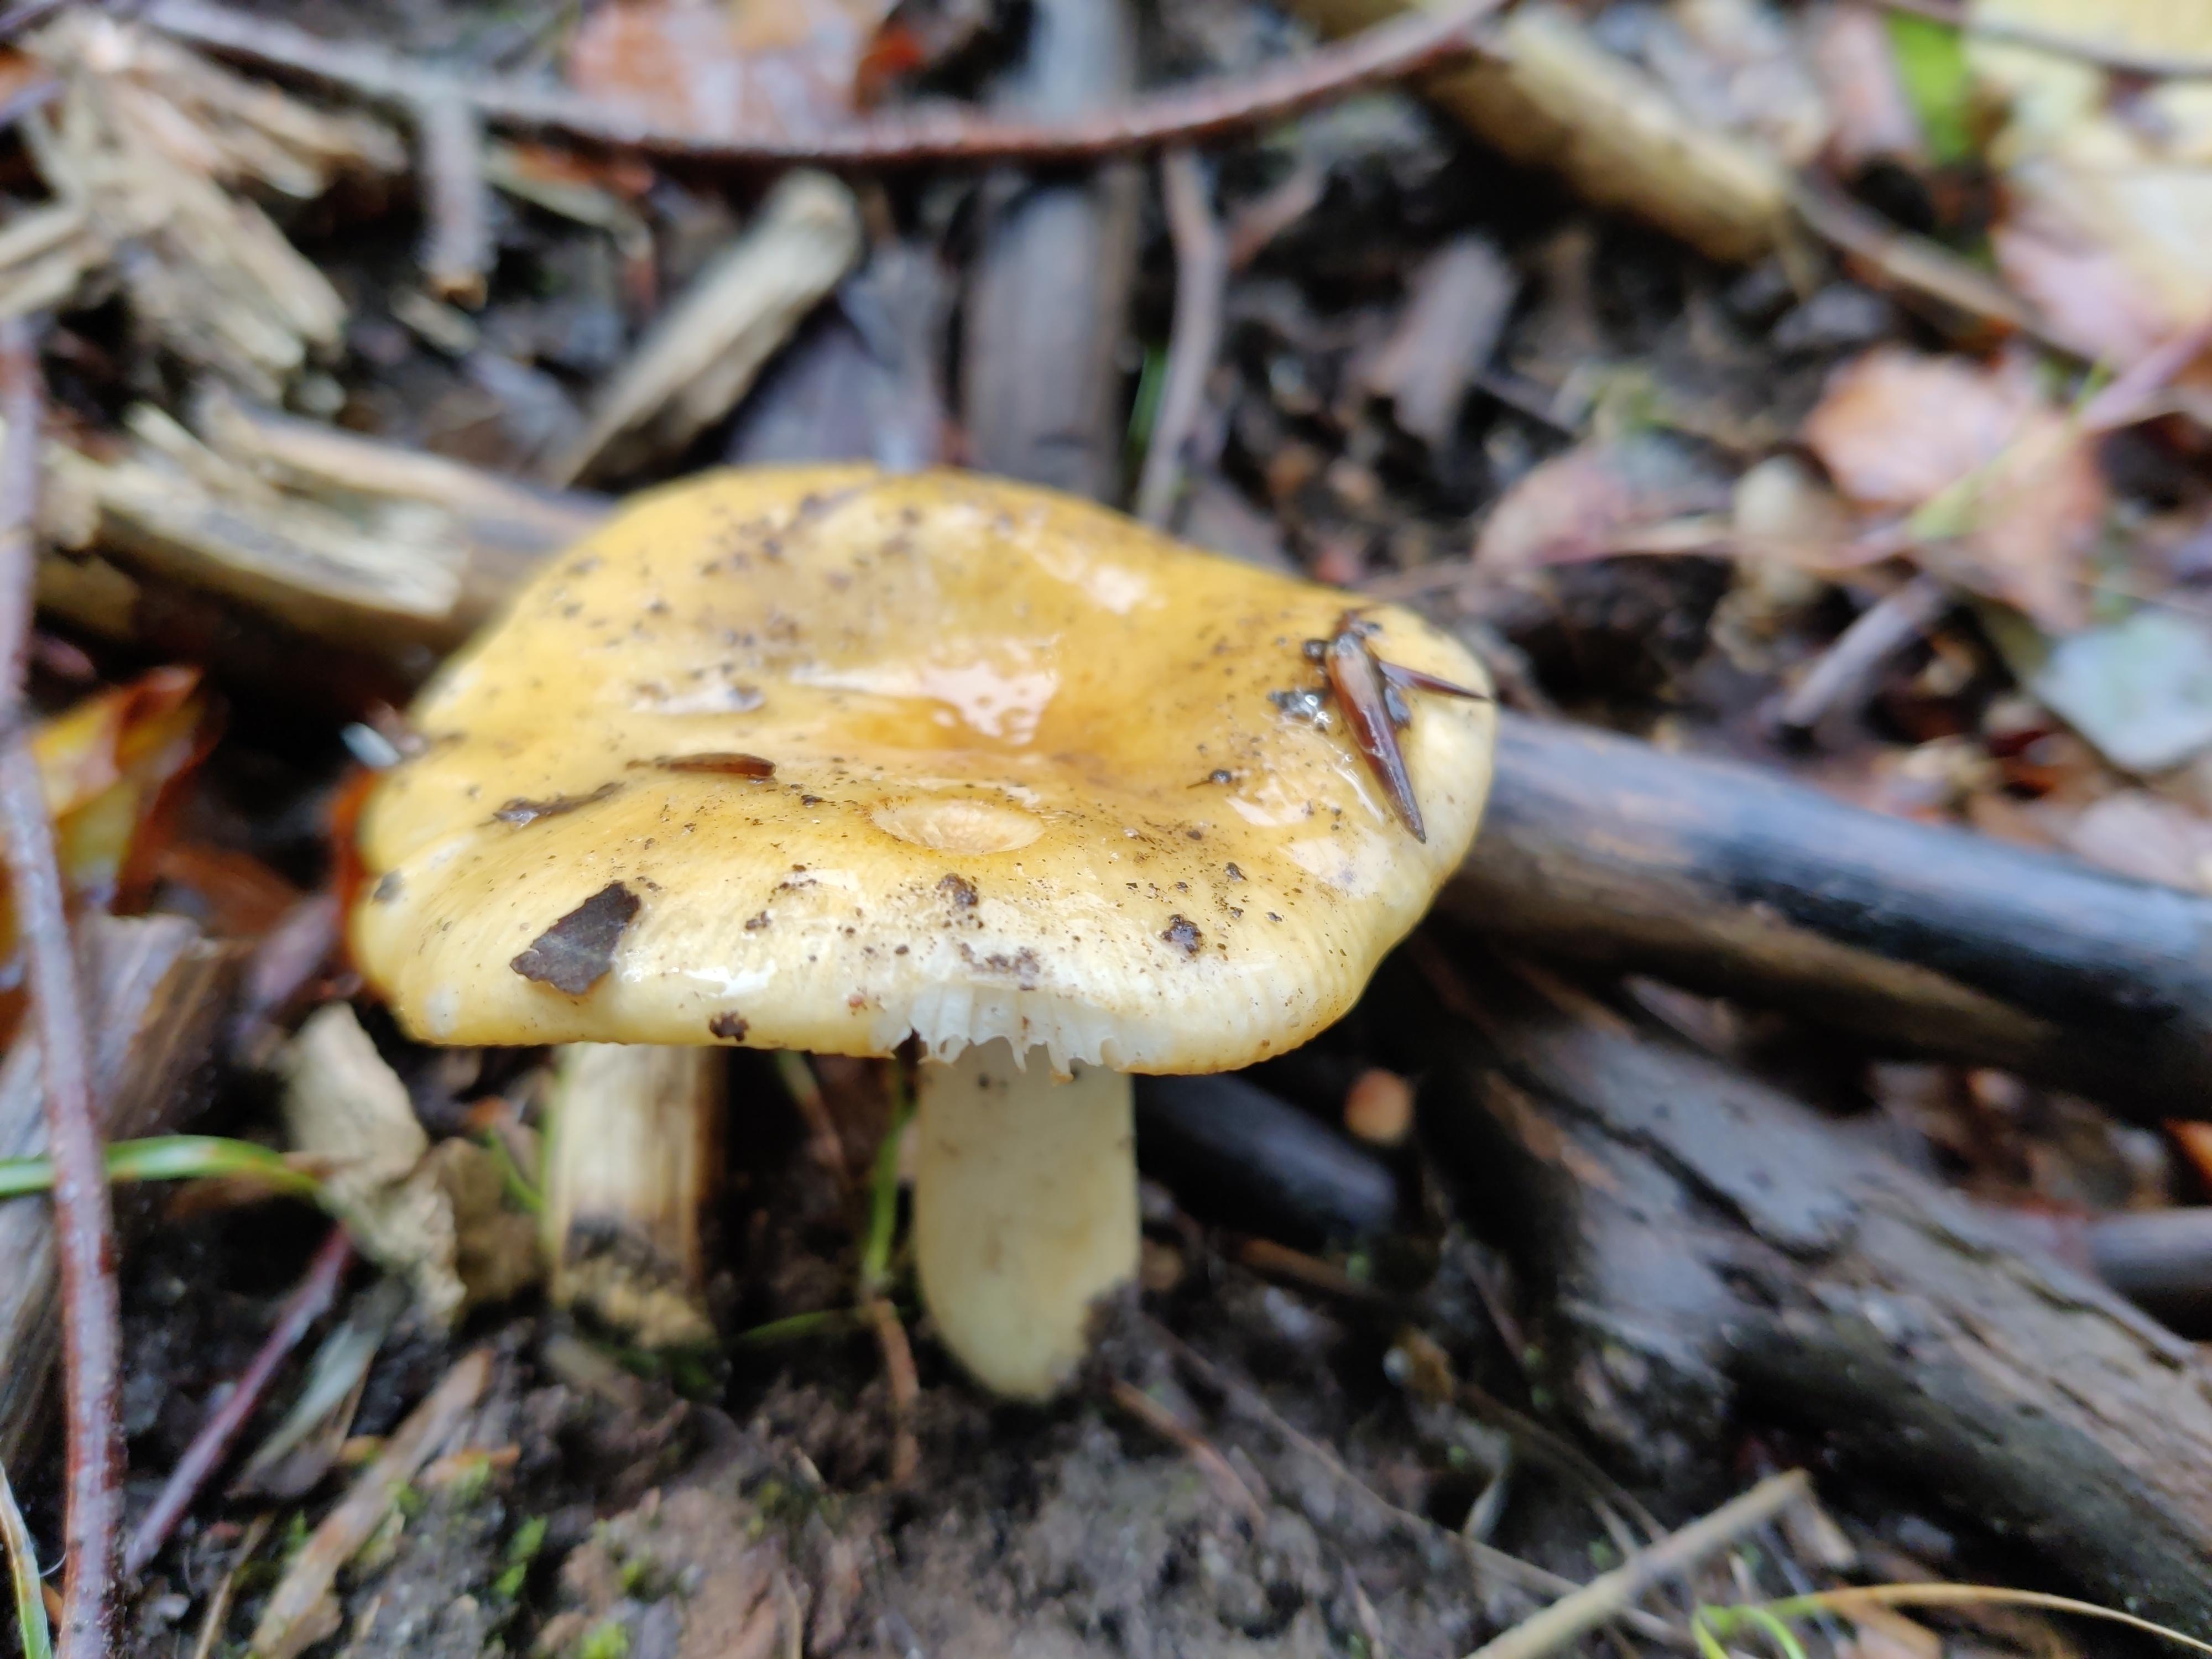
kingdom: Fungi
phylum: Basidiomycota
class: Agaricomycetes
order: Russulales
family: Russulaceae
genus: Russula
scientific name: Russula ochroleuca
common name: okkergul skørhat
